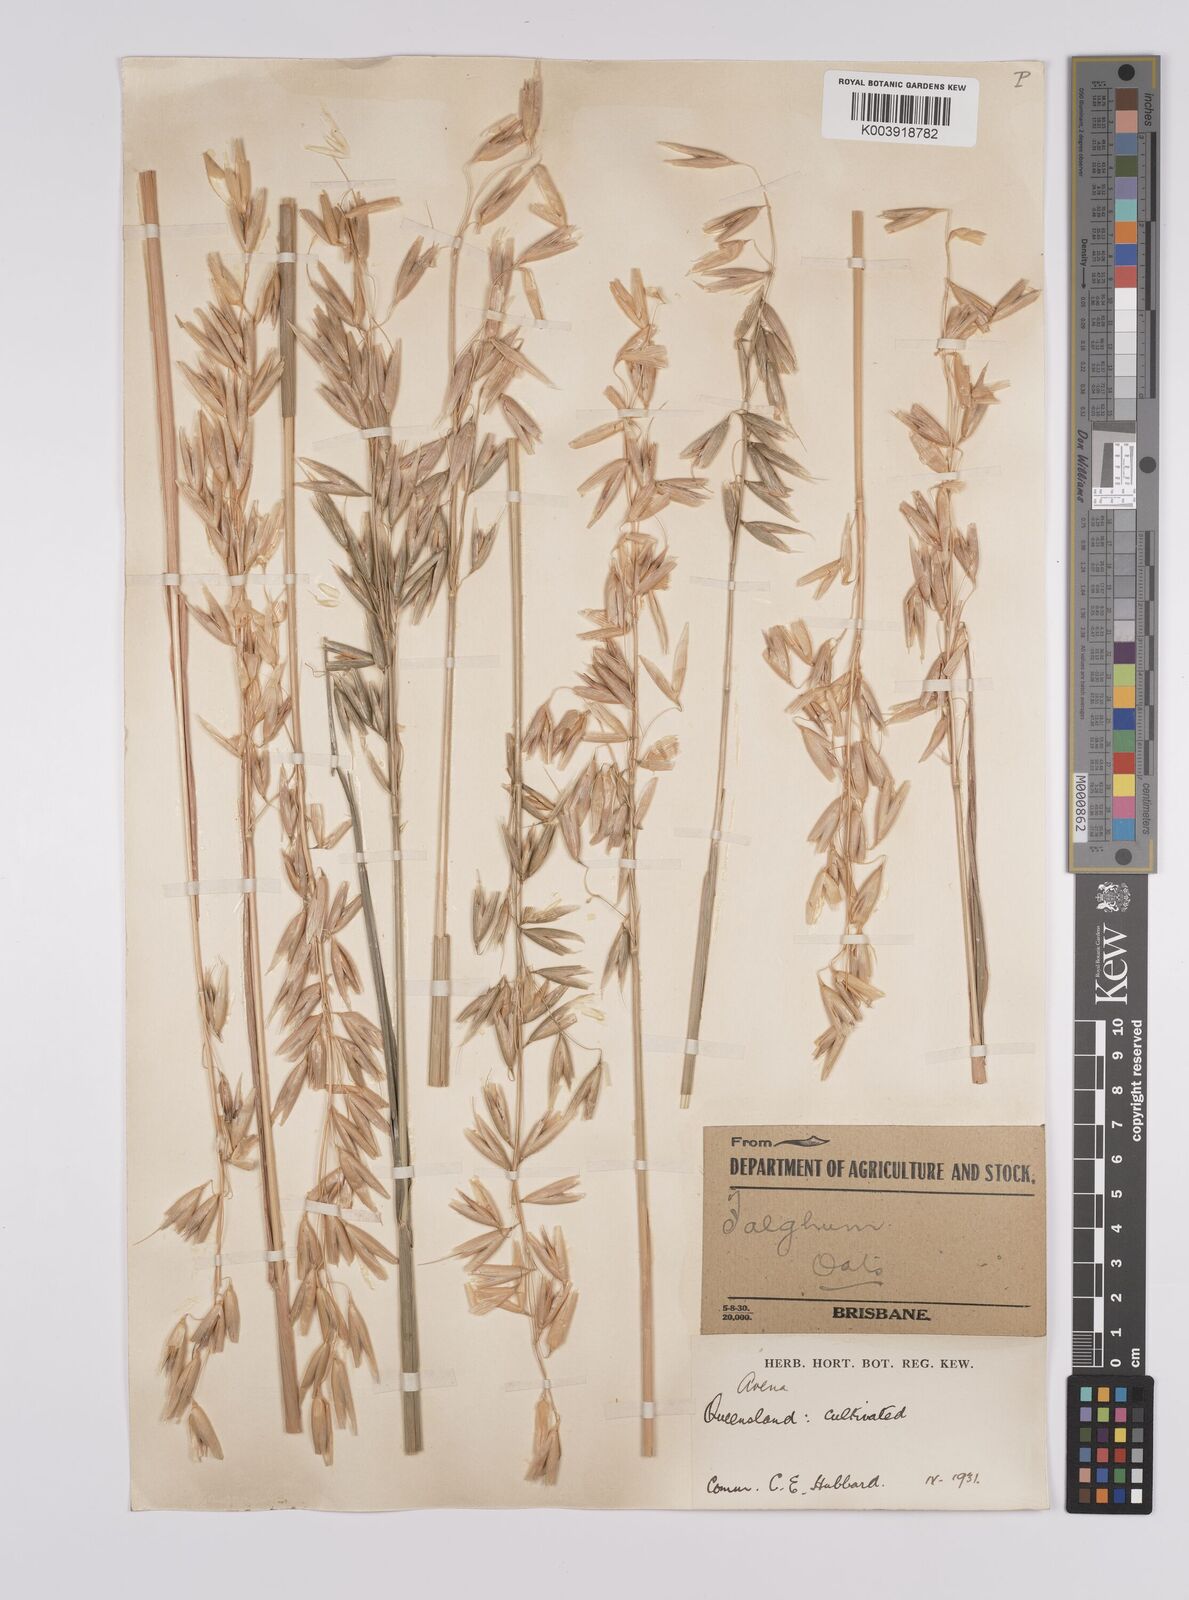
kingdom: Plantae
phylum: Tracheophyta
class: Liliopsida
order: Poales
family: Poaceae
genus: Avena
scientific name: Avena sativa
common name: Oat
